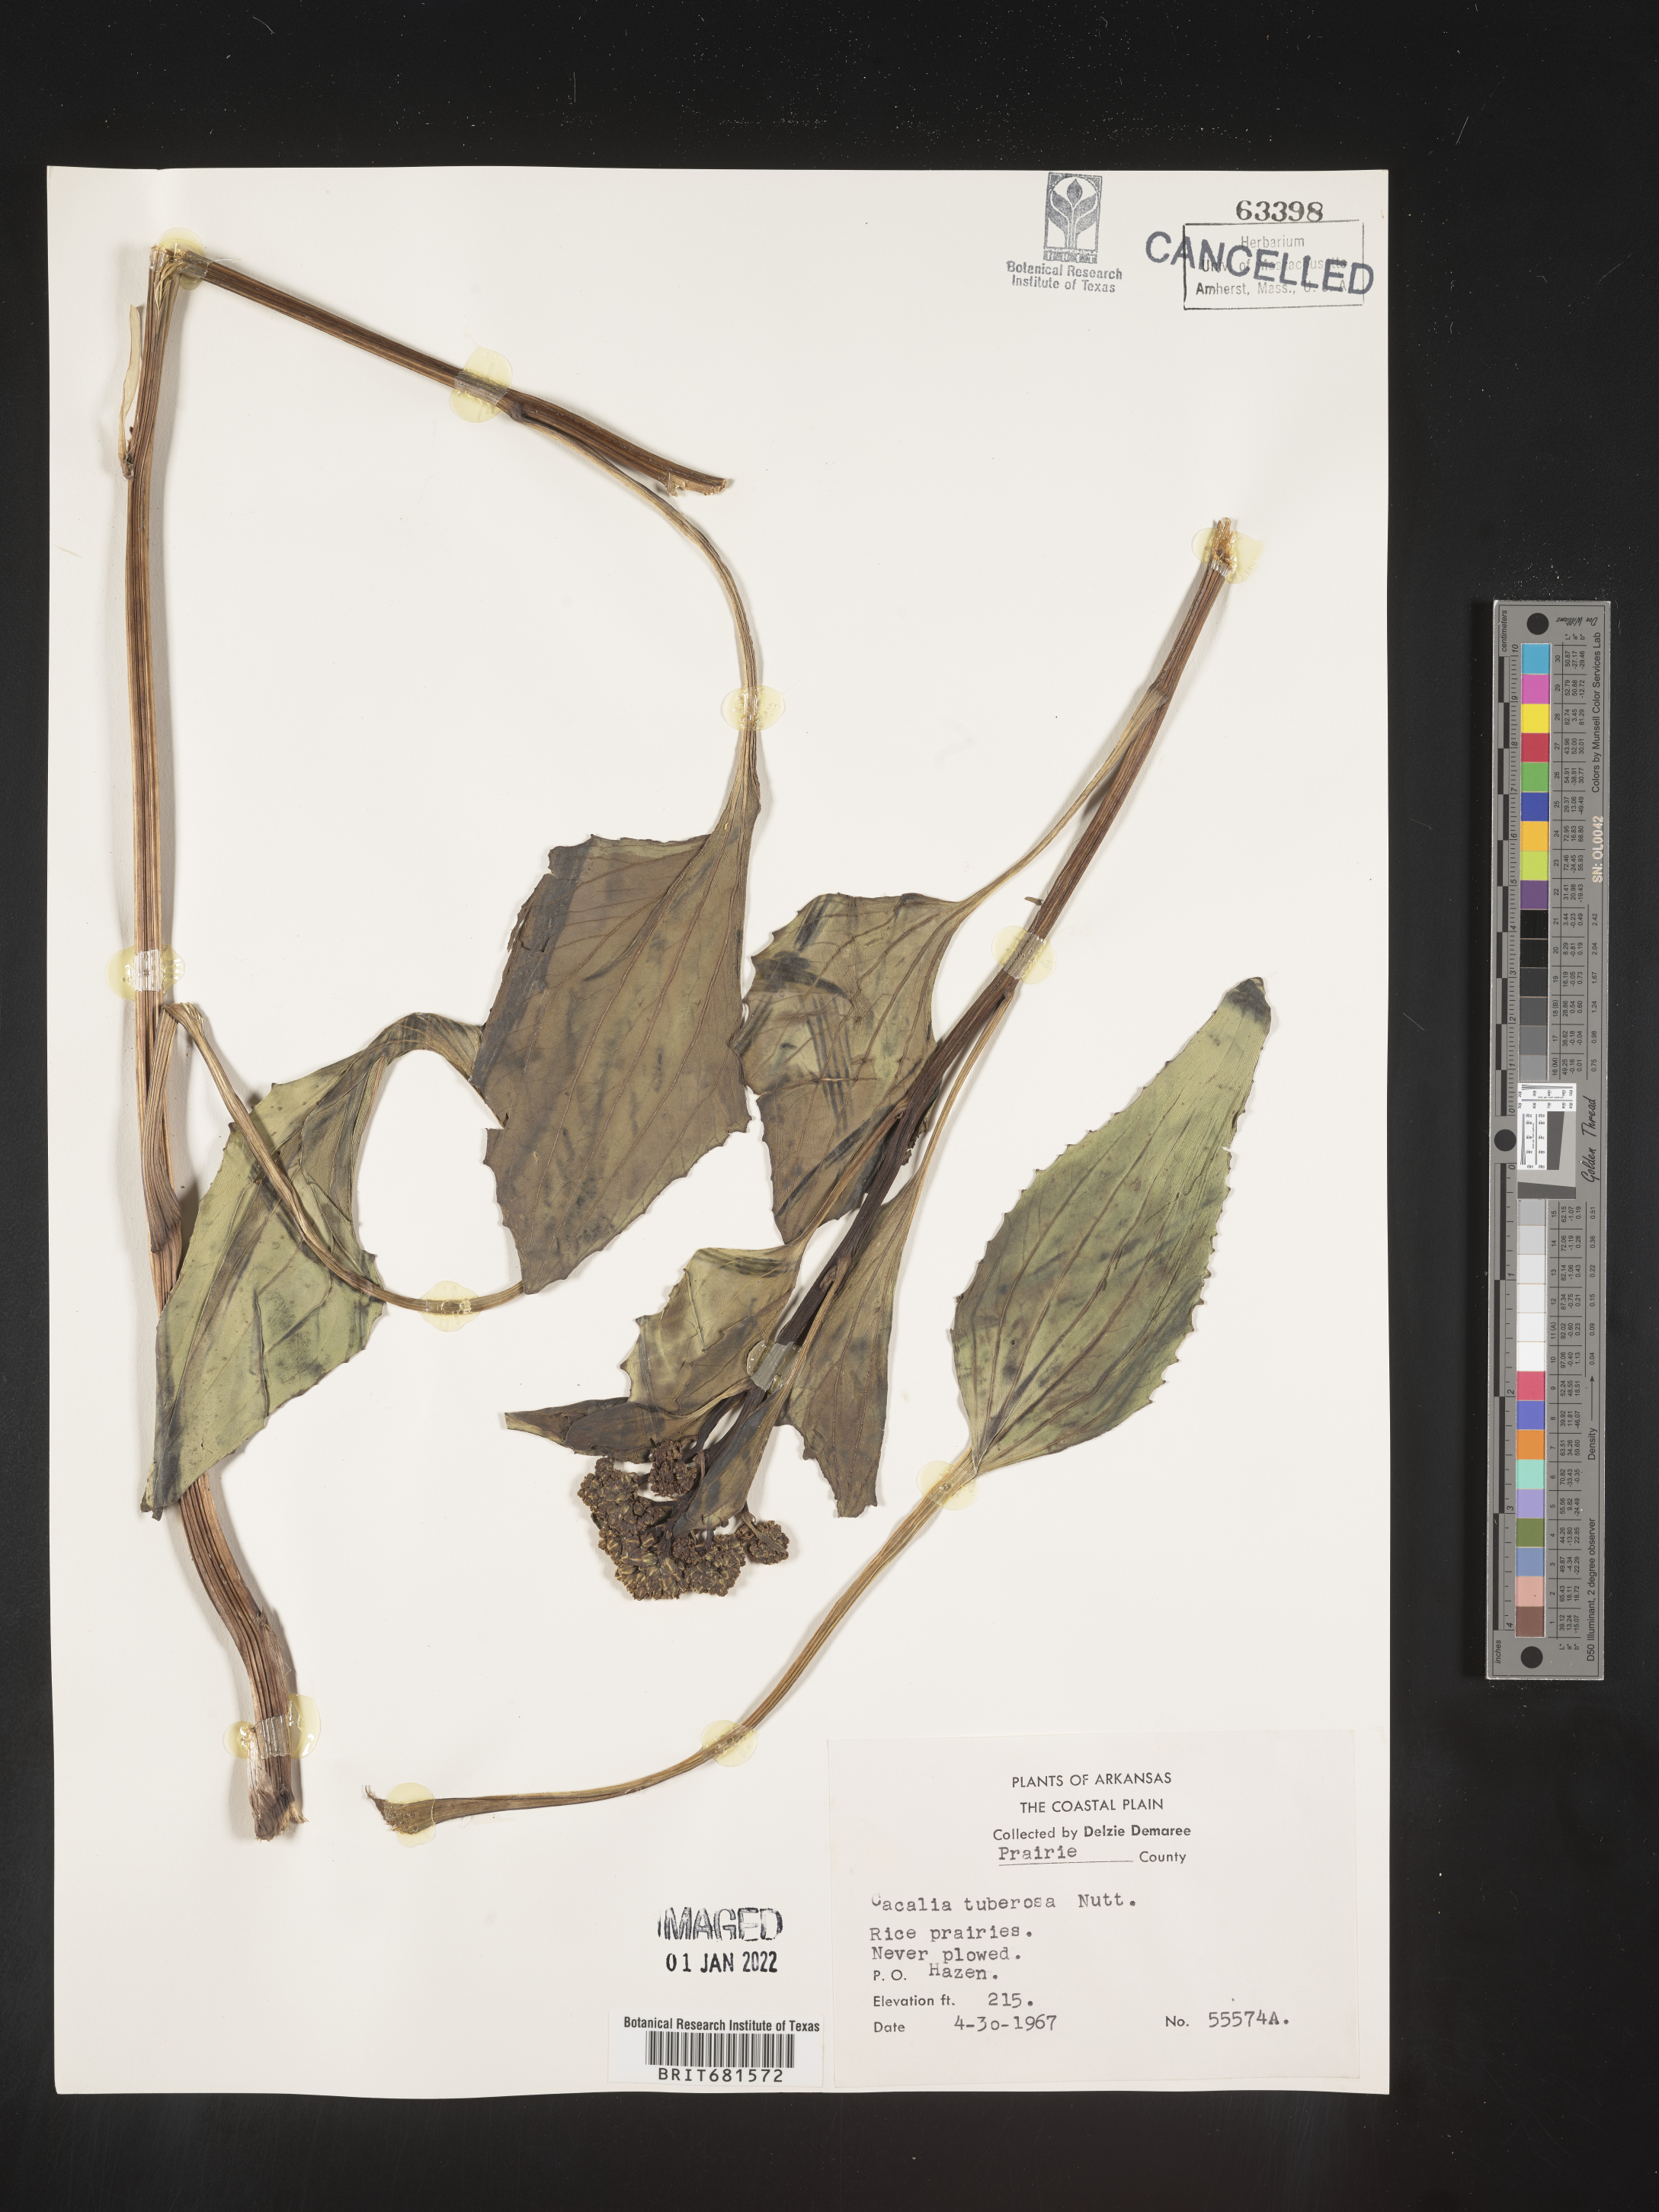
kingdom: Plantae
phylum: Tracheophyta
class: Magnoliopsida
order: Asterales
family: Asteraceae
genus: Arnoglossum
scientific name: Arnoglossum plantagineum
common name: Groove-stemmed indian-plantain
